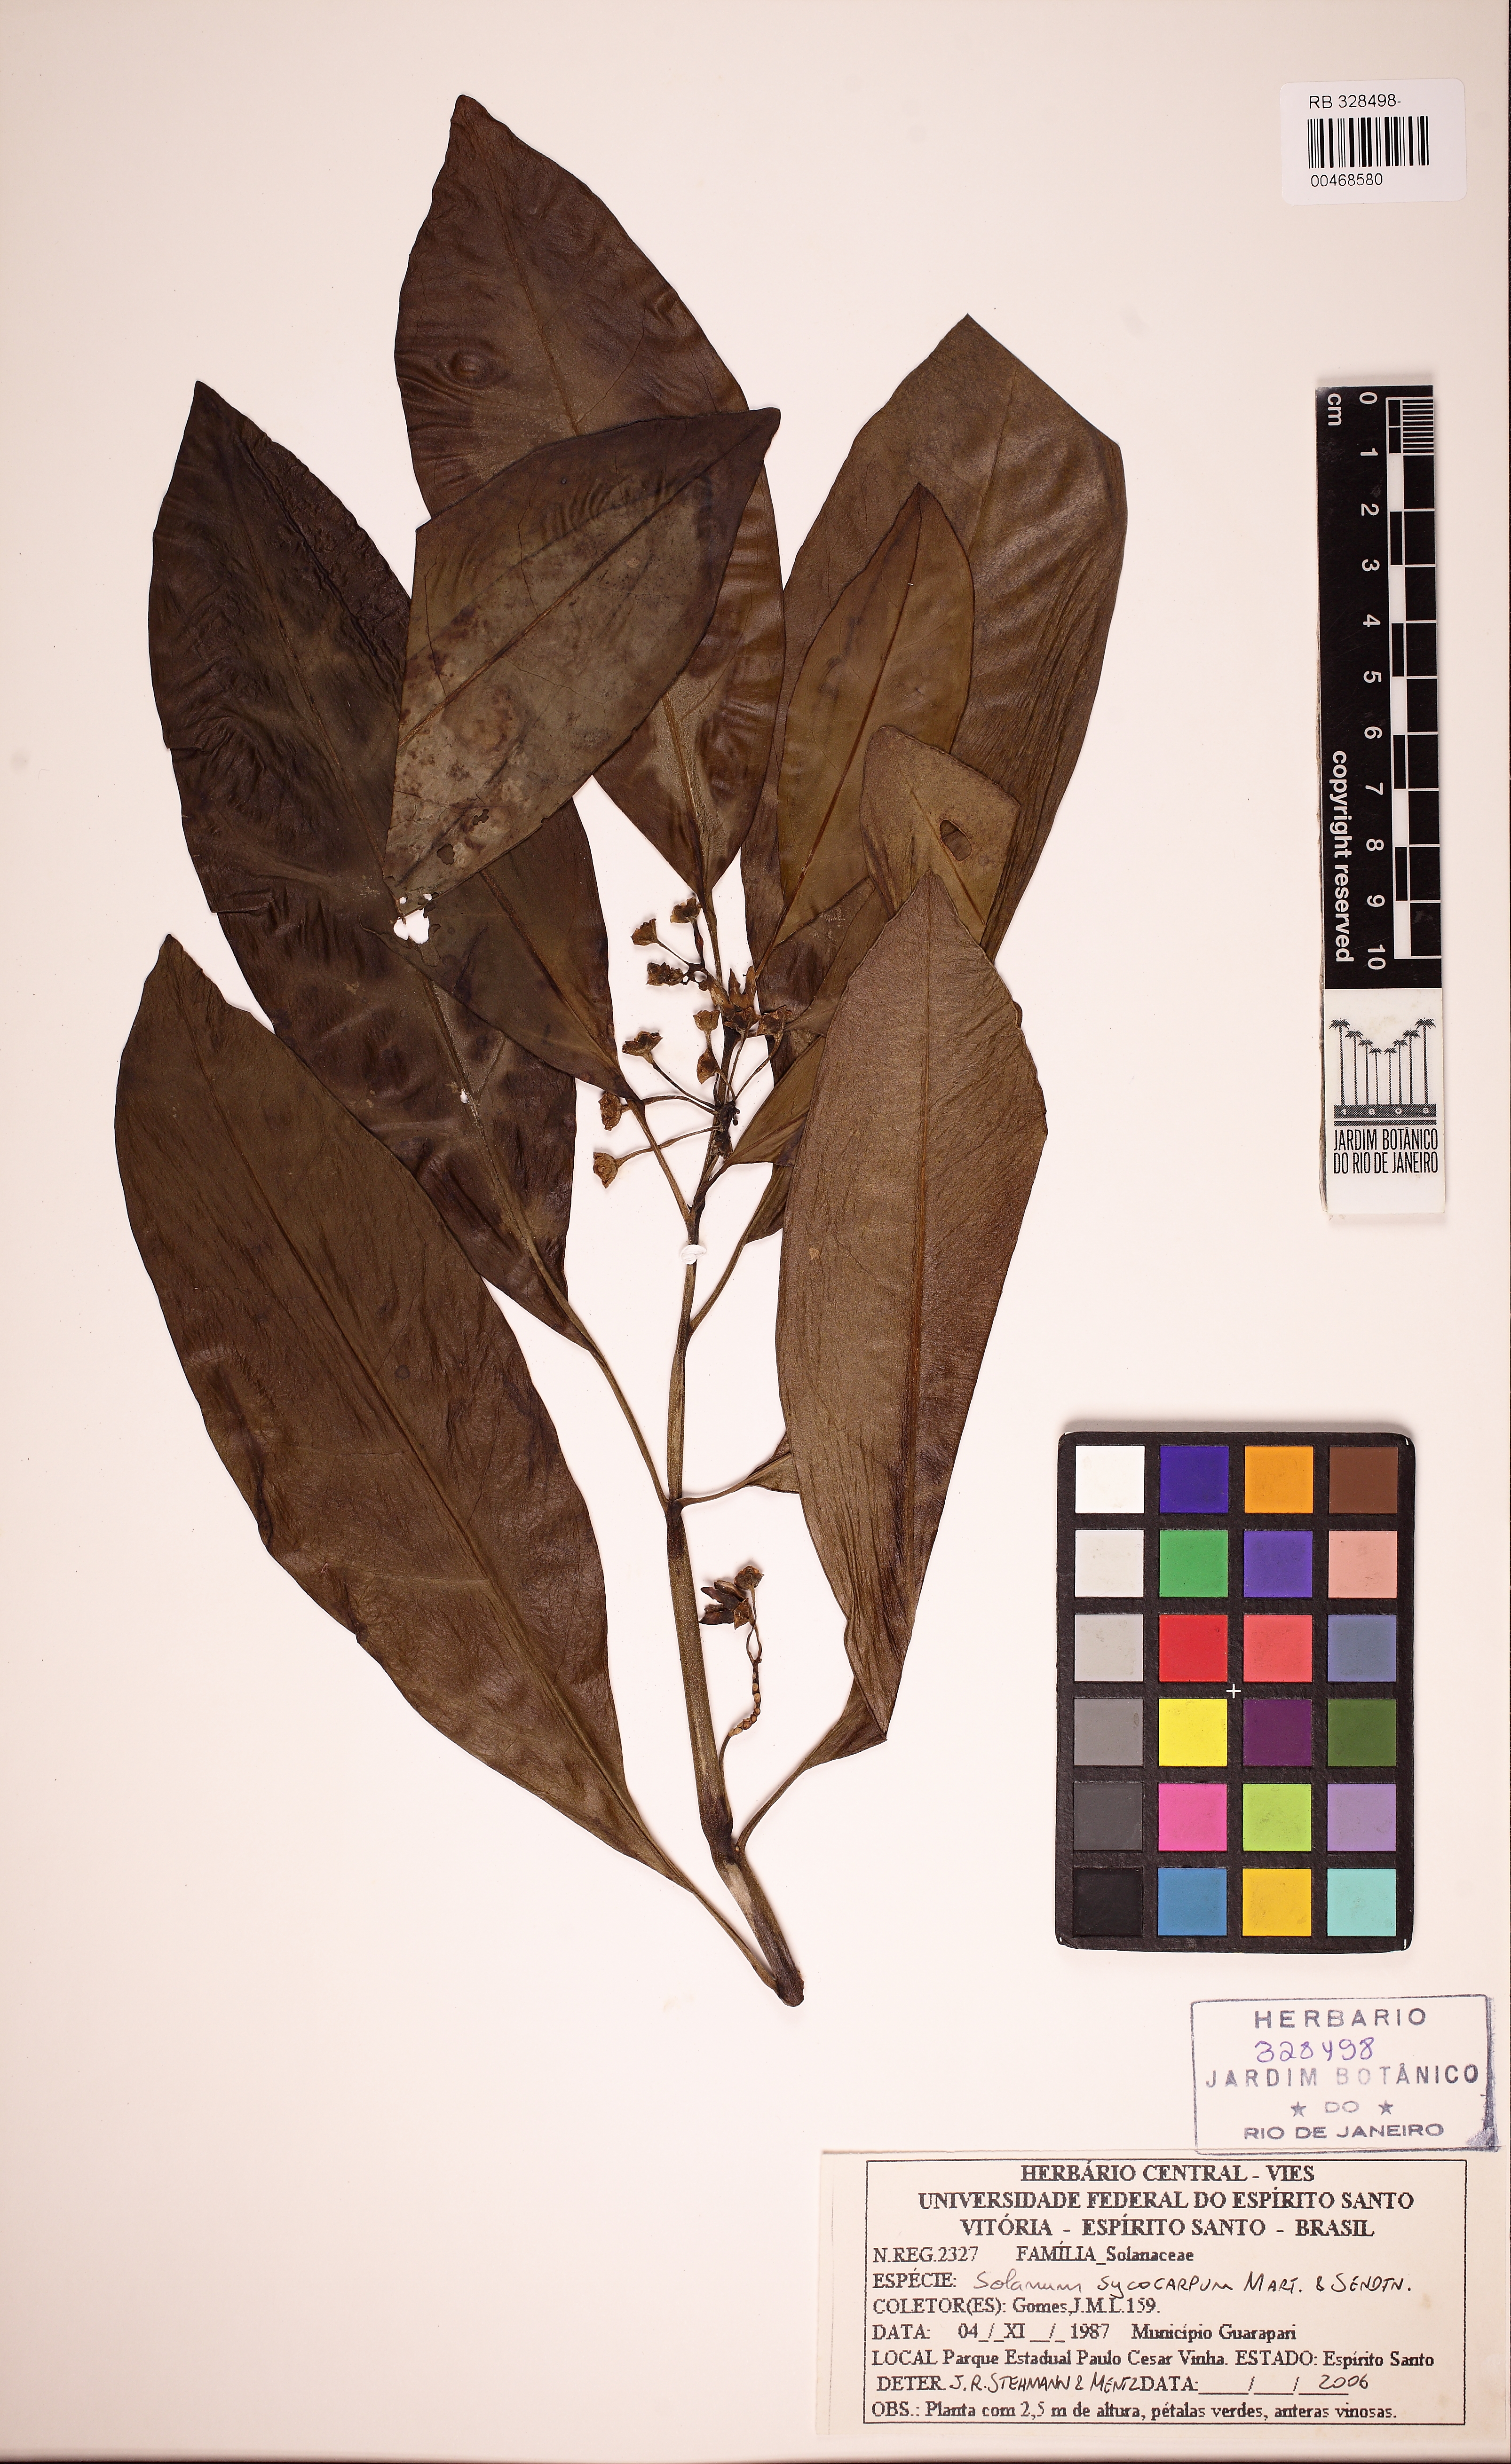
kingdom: Plantae
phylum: Tracheophyta
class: Magnoliopsida
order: Solanales
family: Solanaceae
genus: Solanum
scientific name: Solanum sycocarpum
